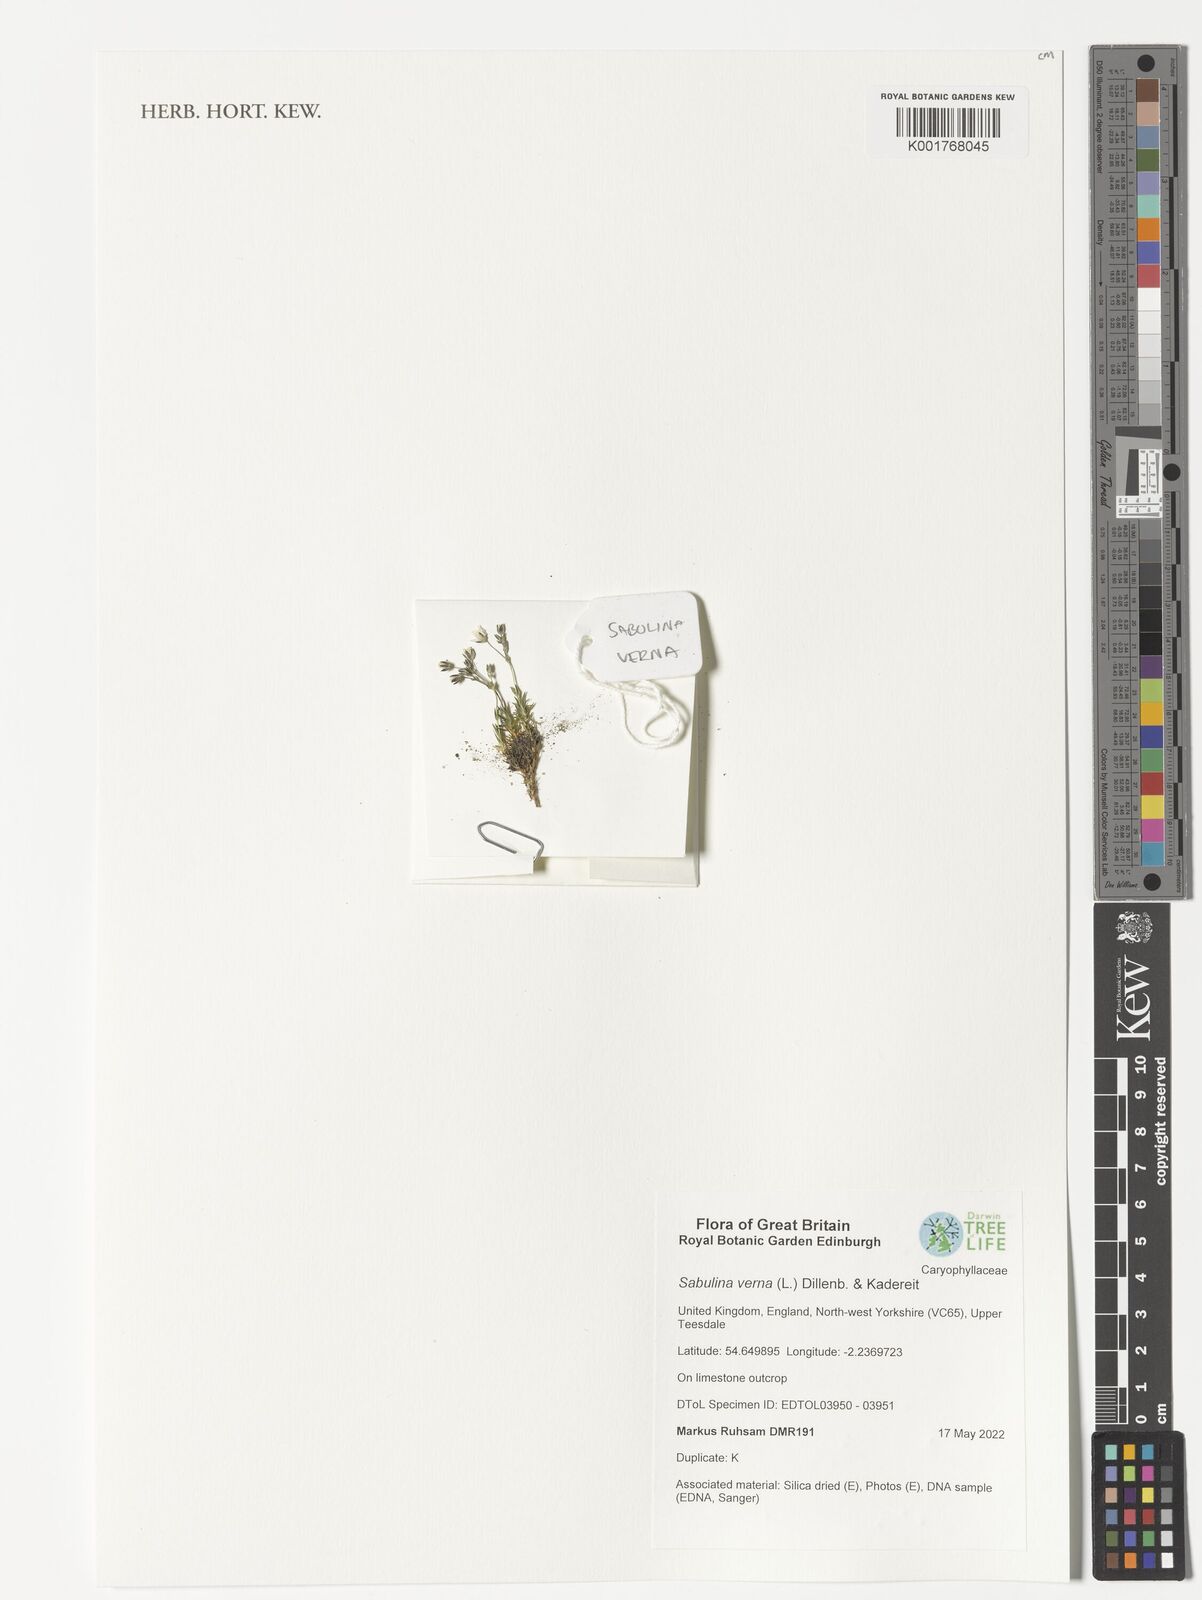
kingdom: Plantae
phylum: Tracheophyta
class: Magnoliopsida
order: Caryophyllales
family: Caryophyllaceae
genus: Sabulina
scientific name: Sabulina verna
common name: Spring sandwort
